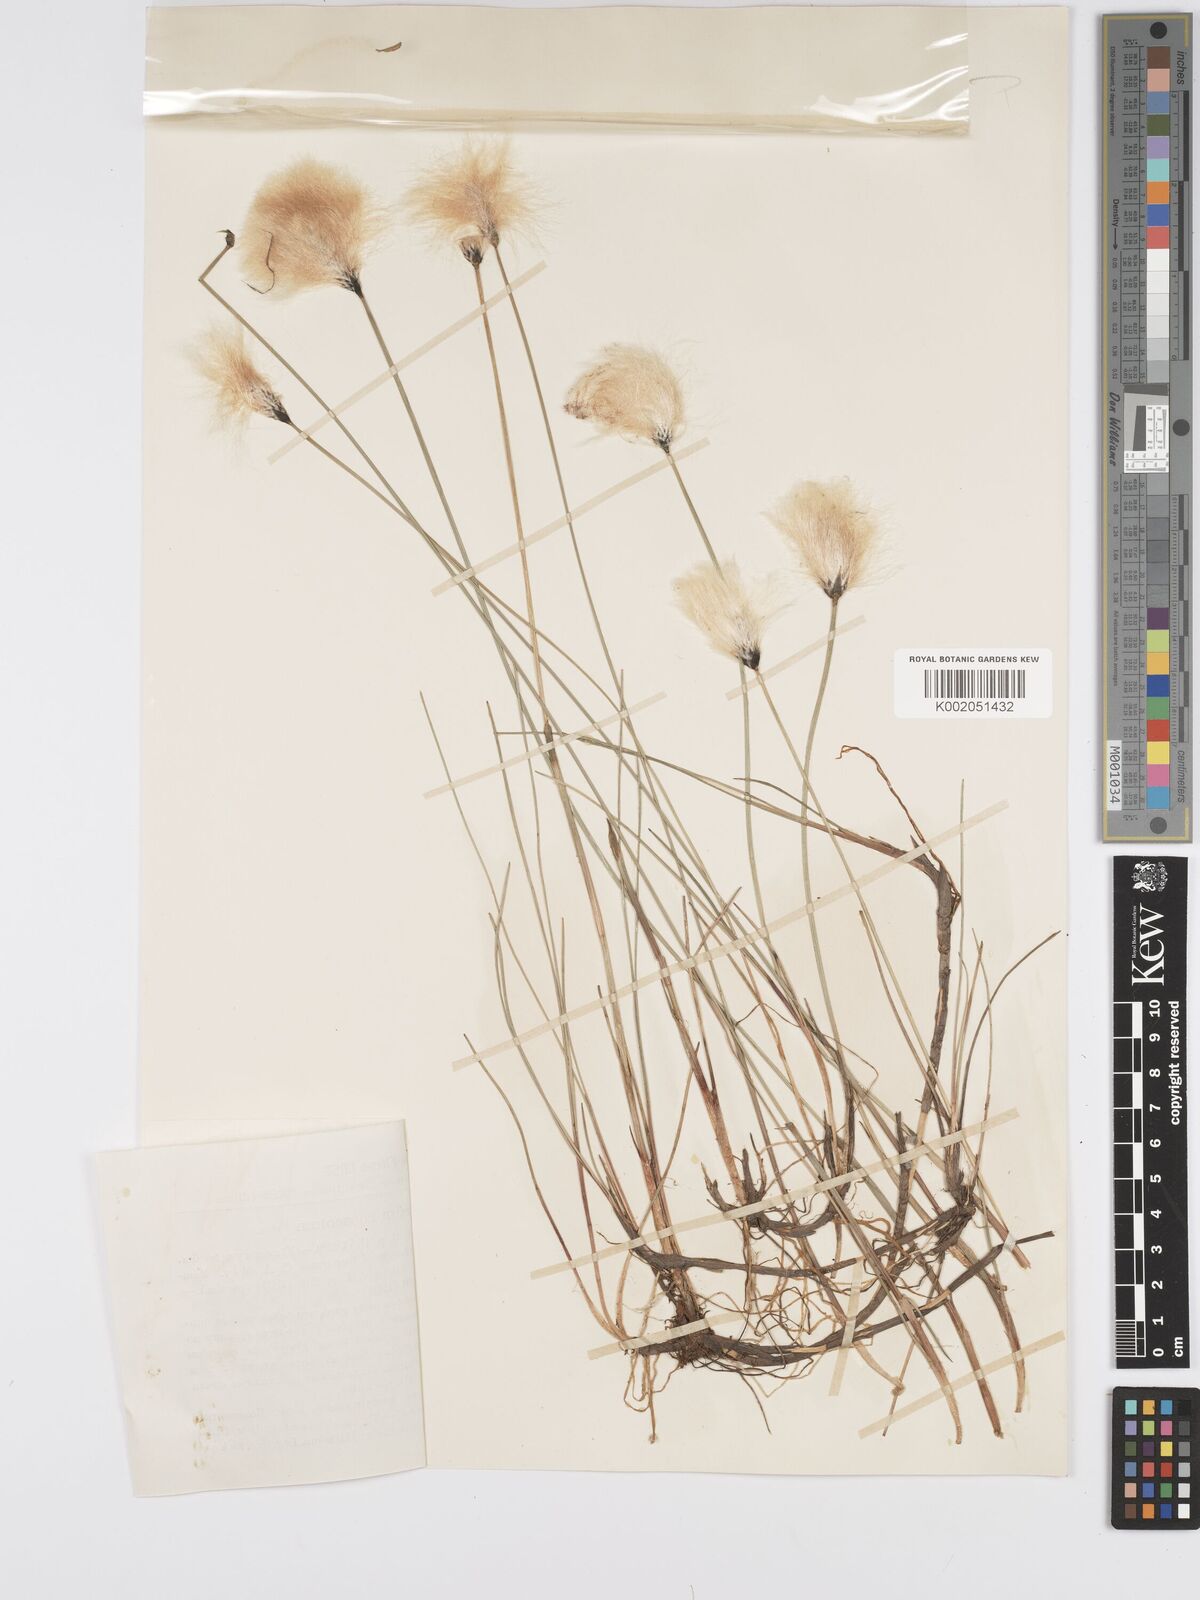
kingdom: Plantae
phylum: Tracheophyta
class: Liliopsida
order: Poales
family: Cyperaceae
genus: Eriophorum
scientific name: Eriophorum chamissonis
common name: Chamisso's cottongrass
